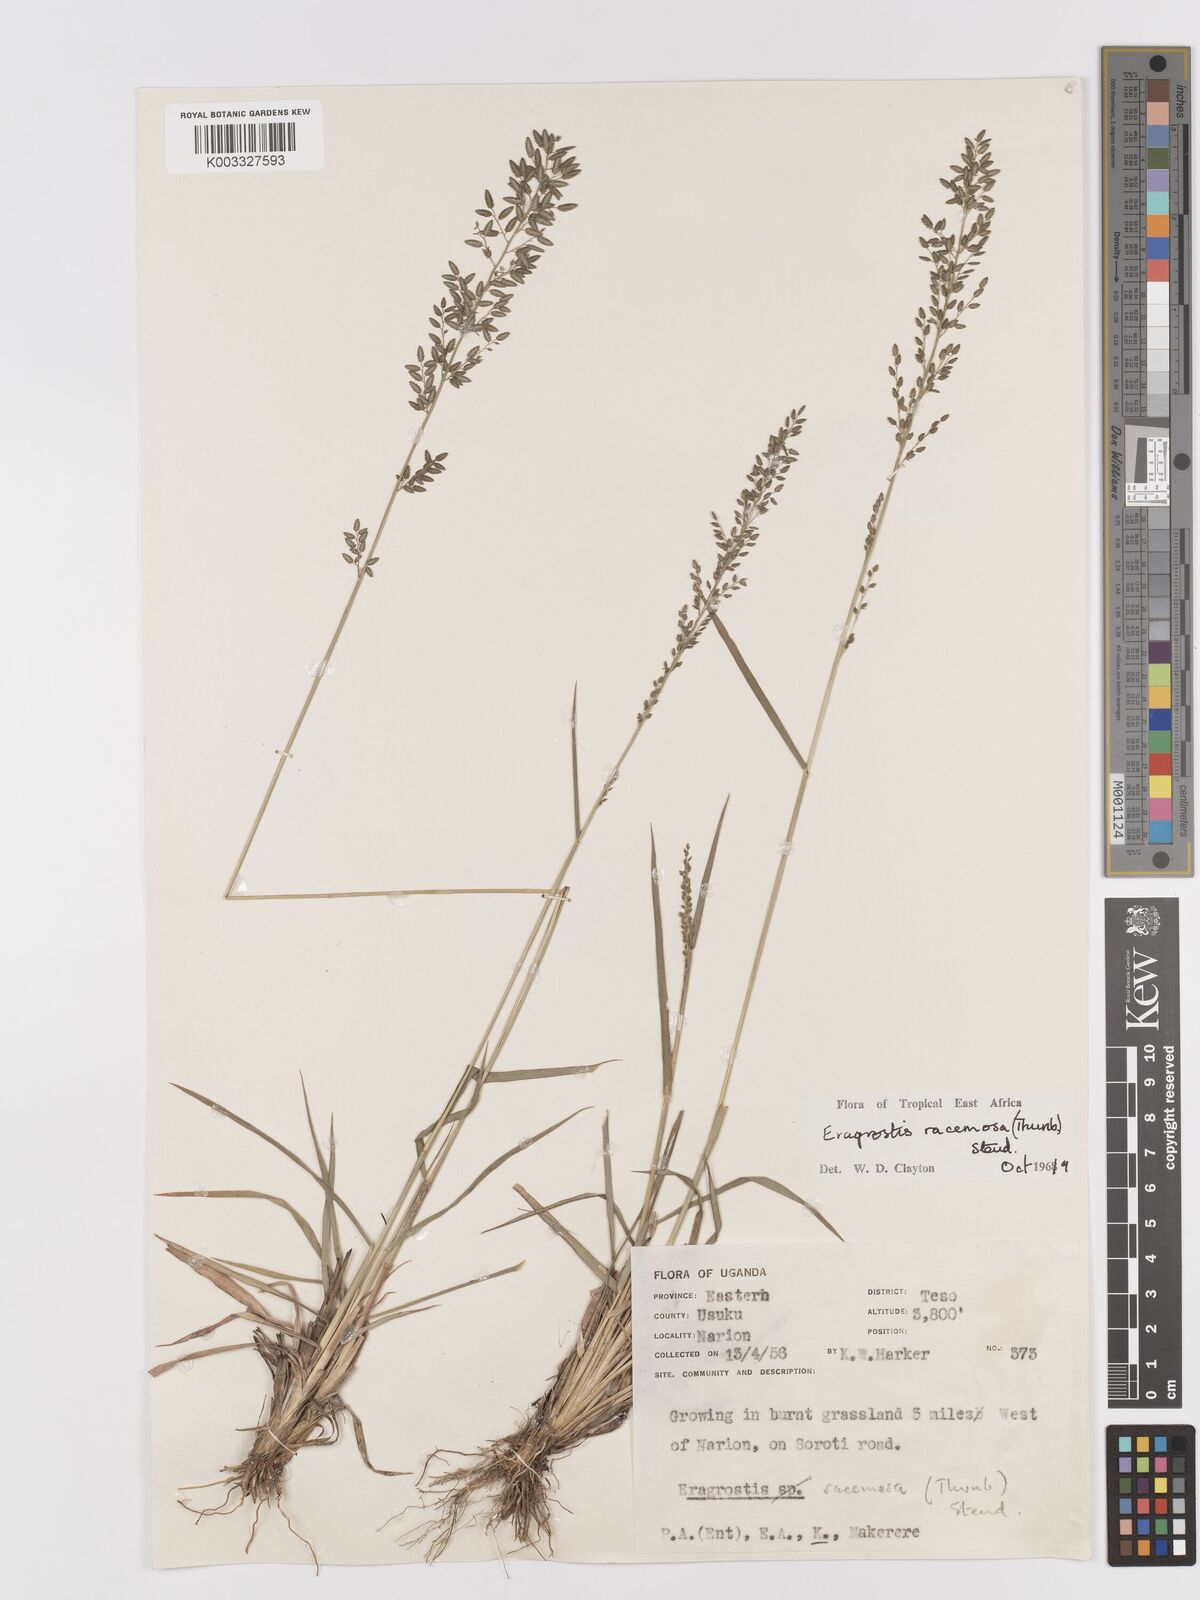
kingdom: Plantae
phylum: Tracheophyta
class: Liliopsida
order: Poales
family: Poaceae
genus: Eragrostis
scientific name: Eragrostis racemosa
